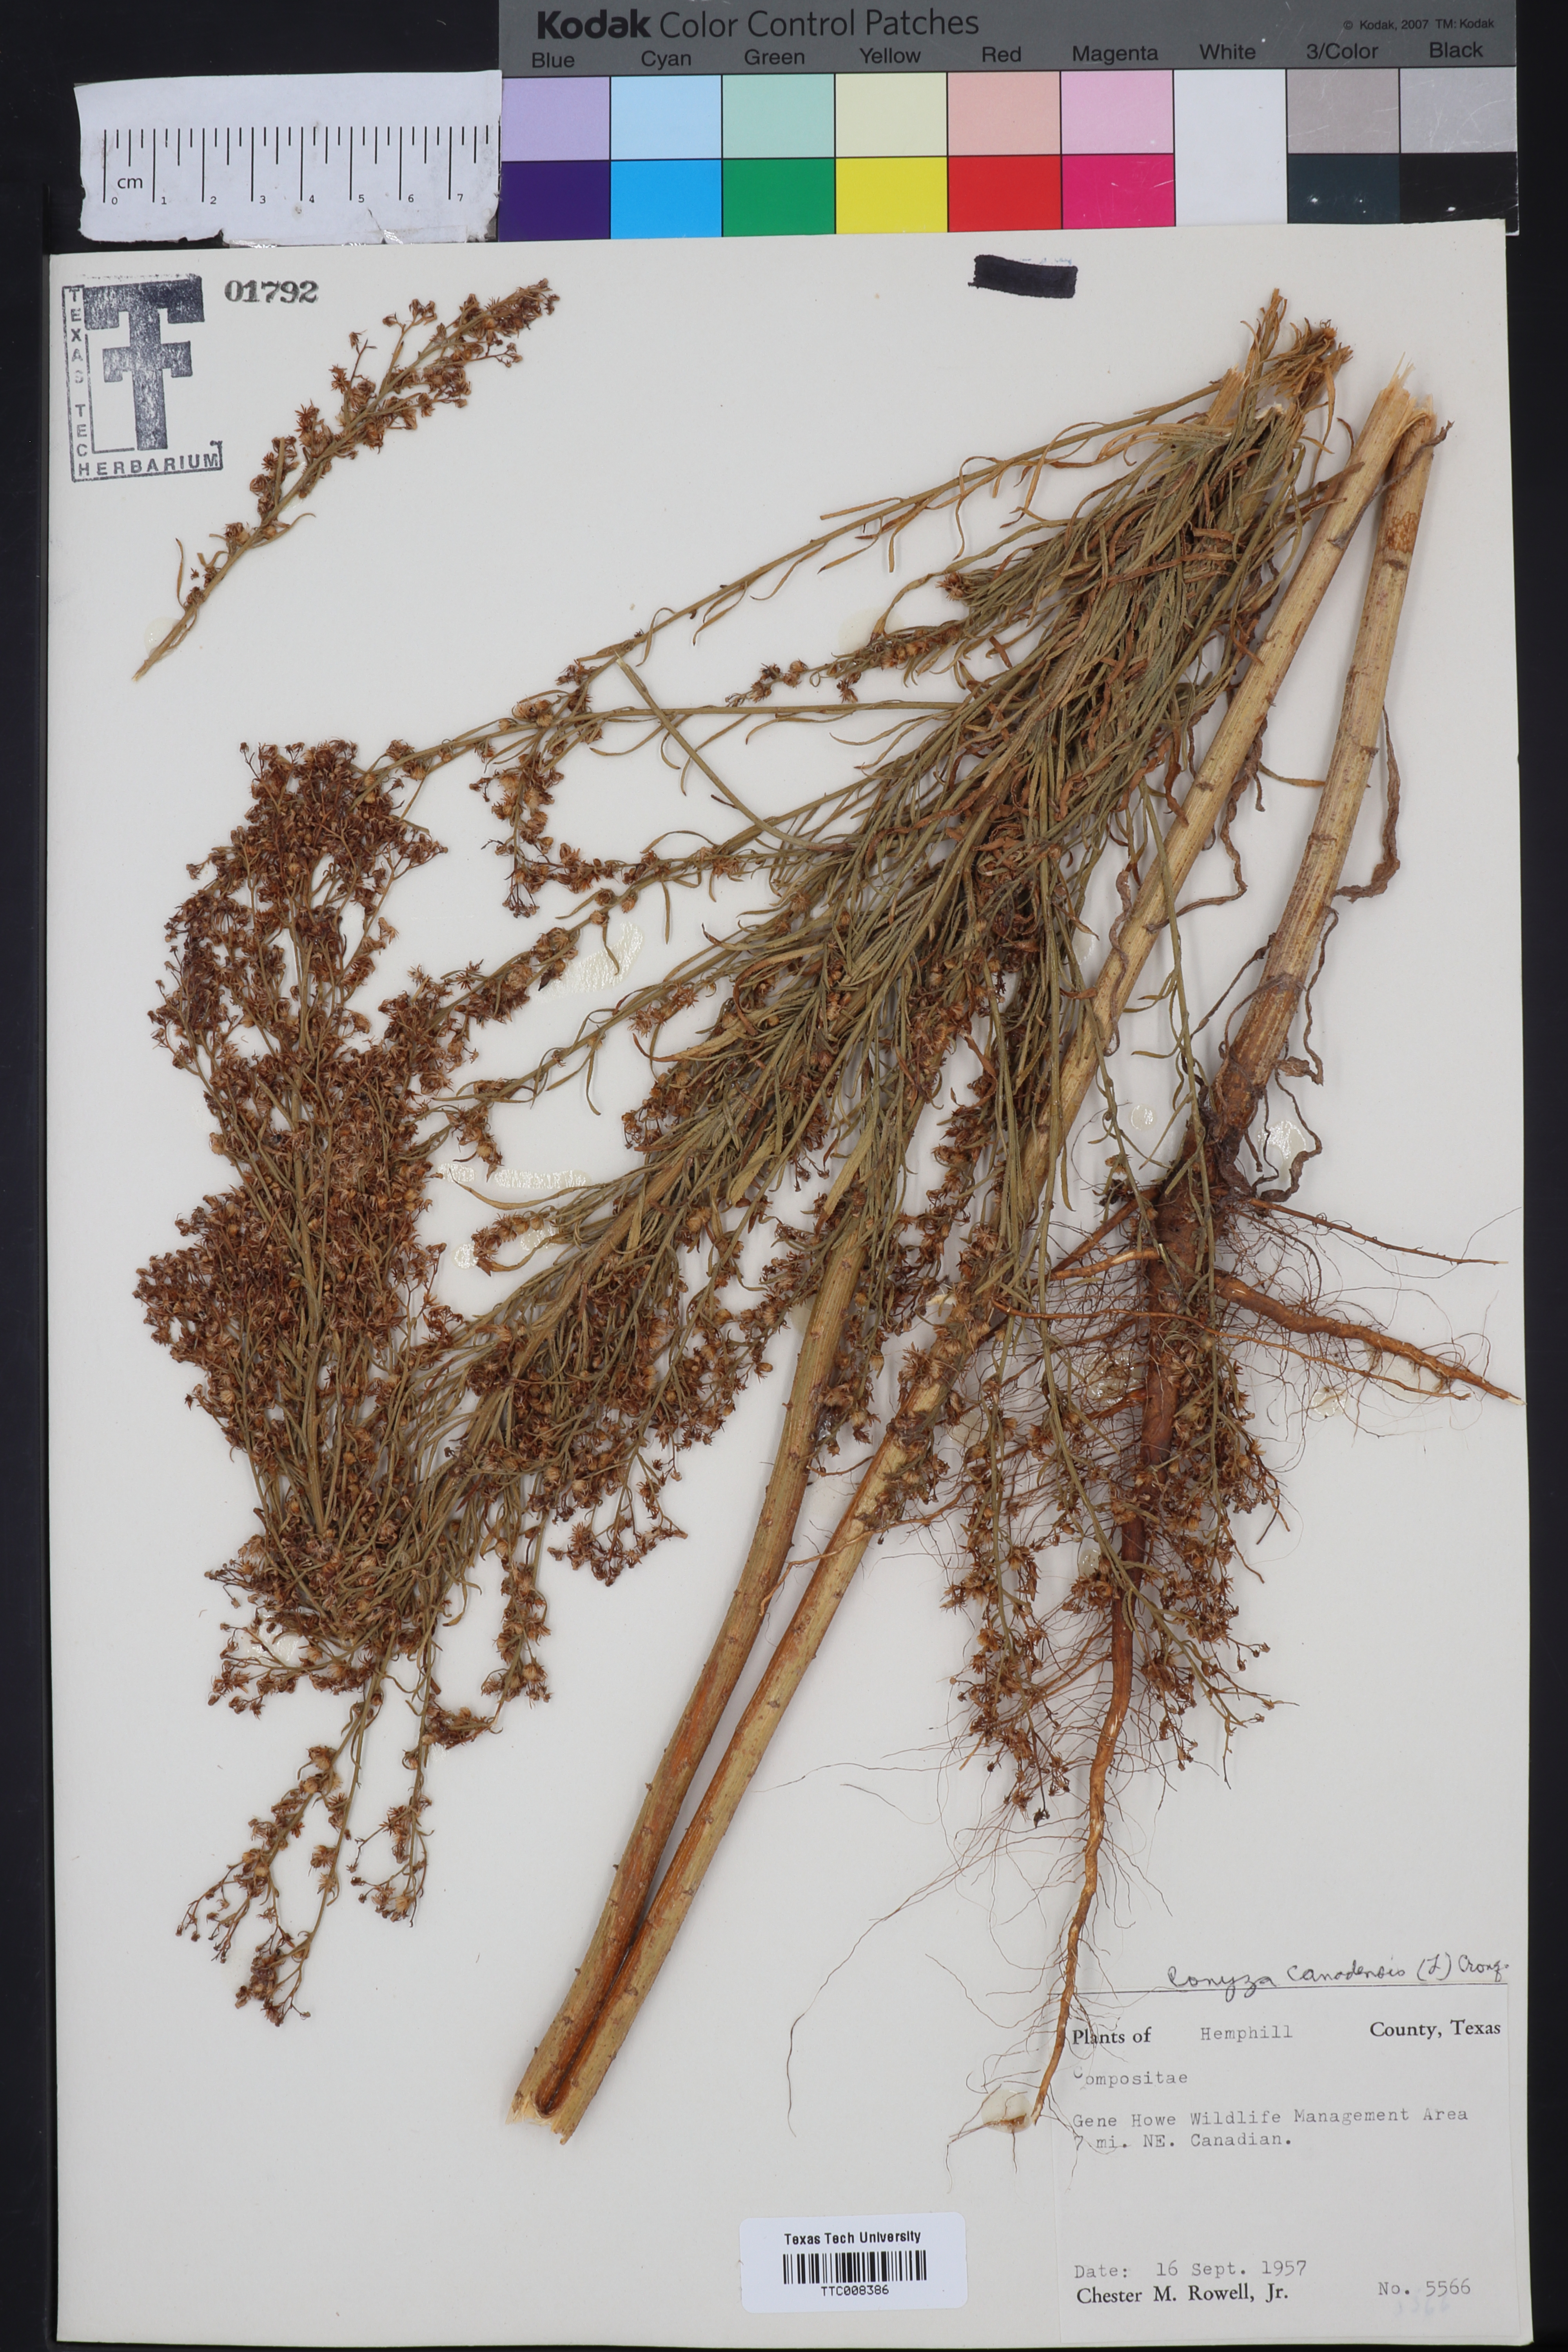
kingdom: Plantae
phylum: Tracheophyta
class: Magnoliopsida
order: Asterales
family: Asteraceae
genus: Erigeron
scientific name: Erigeron canadensis
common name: Canadian fleabane
